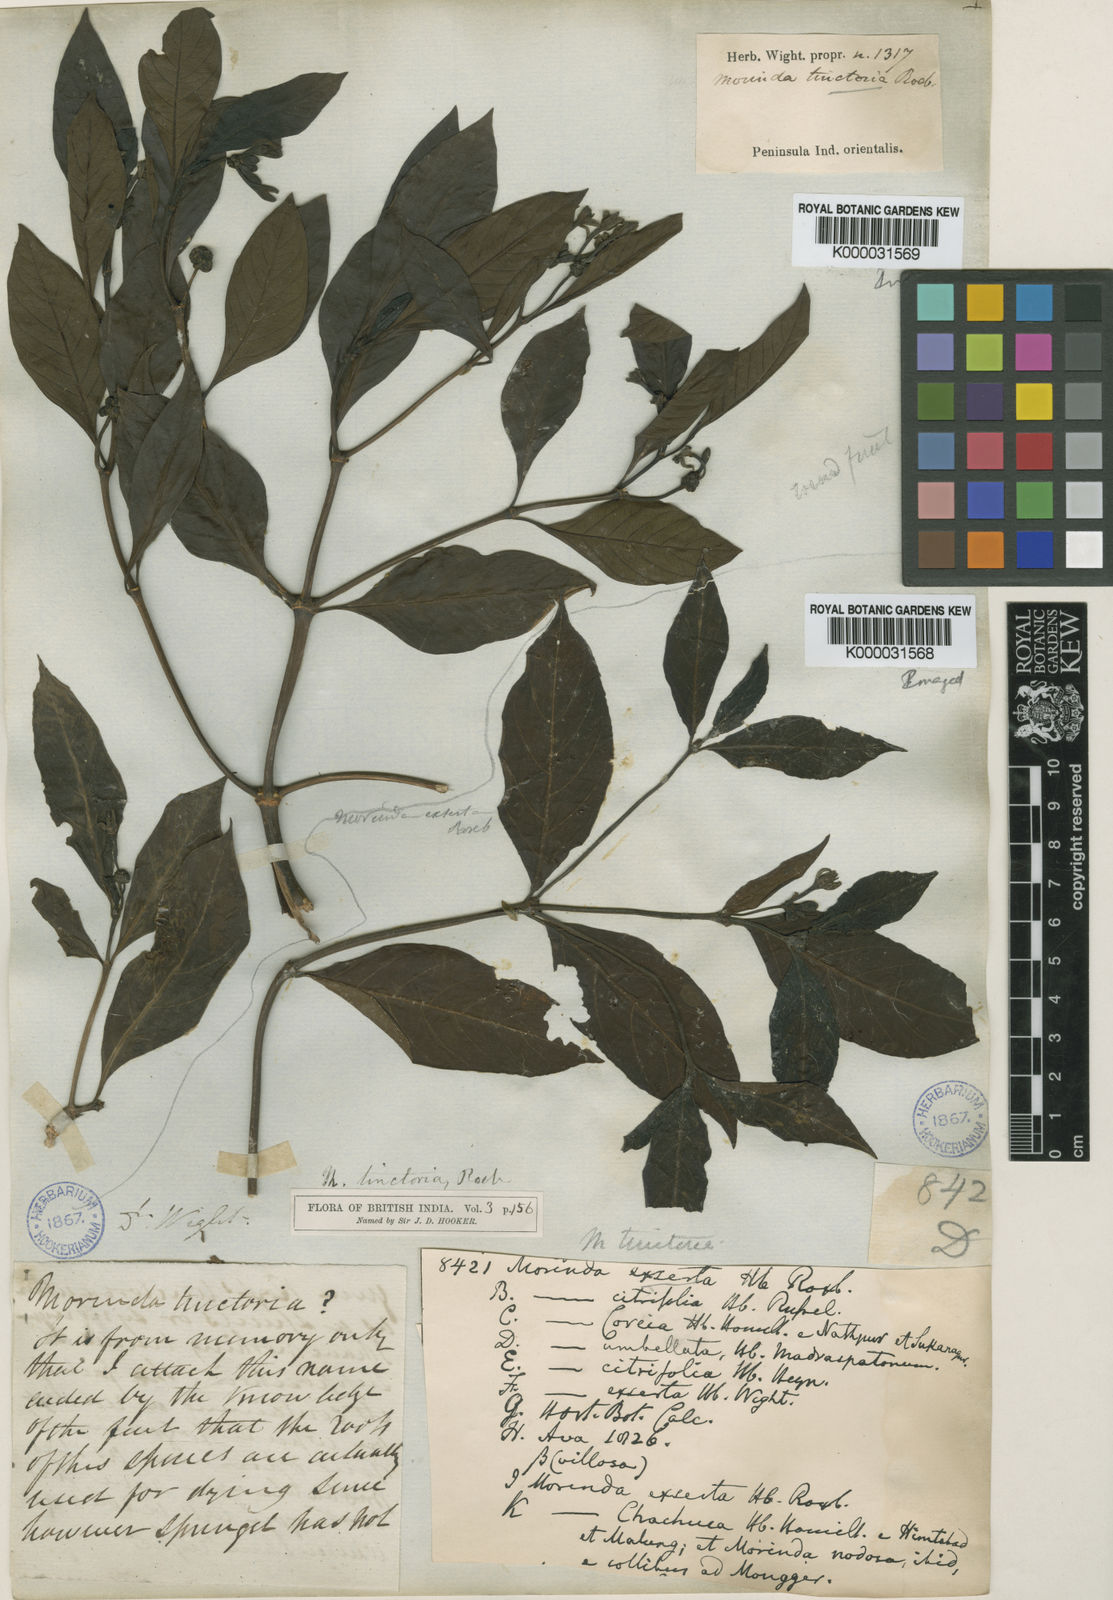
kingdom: Plantae
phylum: Tracheophyta
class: Magnoliopsida
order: Gentianales
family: Rubiaceae
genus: Morinda
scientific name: Morinda coreia
